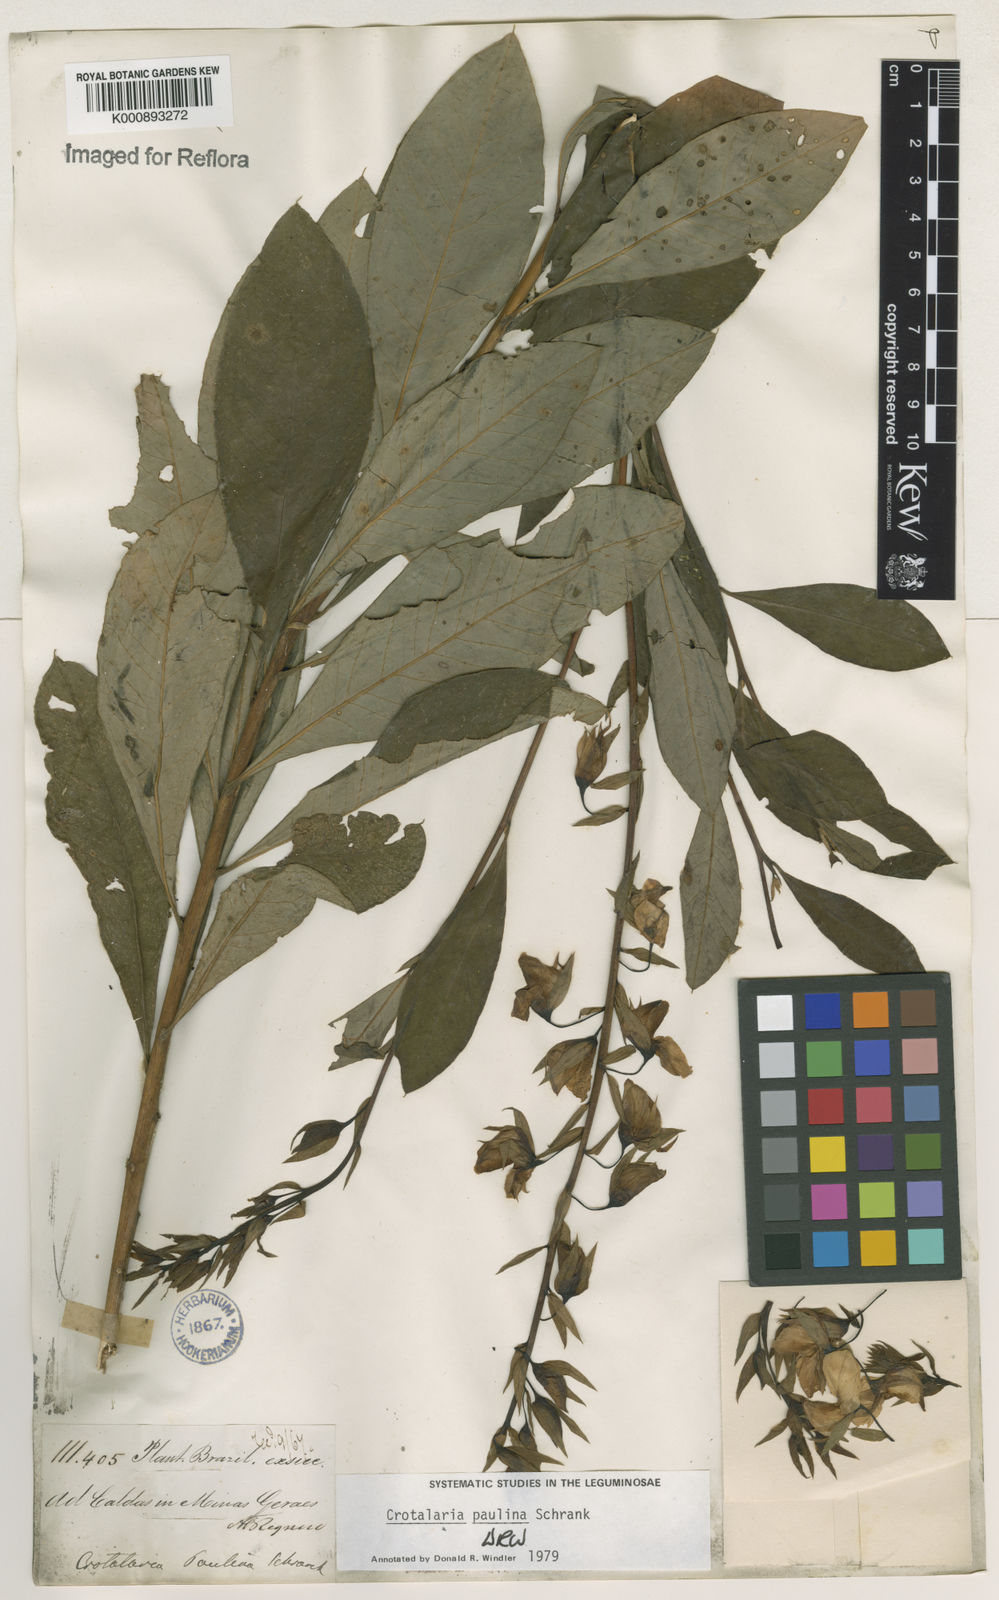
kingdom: Plantae
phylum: Tracheophyta
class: Magnoliopsida
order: Fabales
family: Fabaceae
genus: Crotalaria
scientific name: Crotalaria paulina
